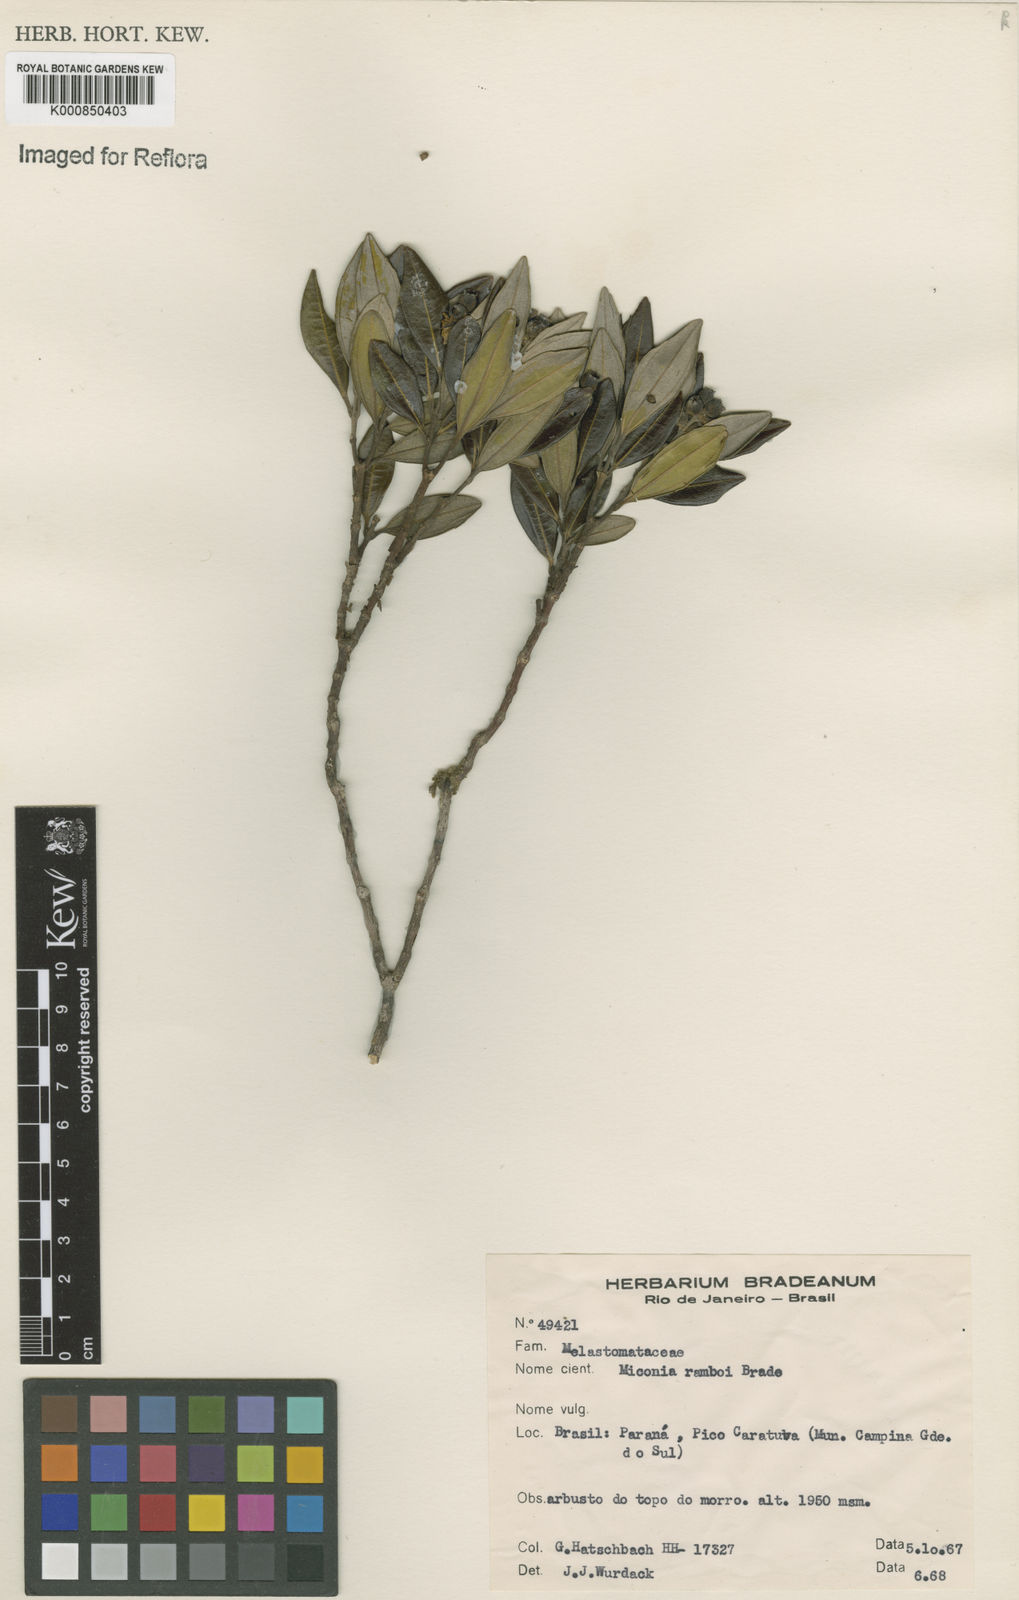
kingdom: Plantae
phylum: Tracheophyta
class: Magnoliopsida
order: Myrtales
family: Melastomataceae
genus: Miconia
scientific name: Miconia ramboi
